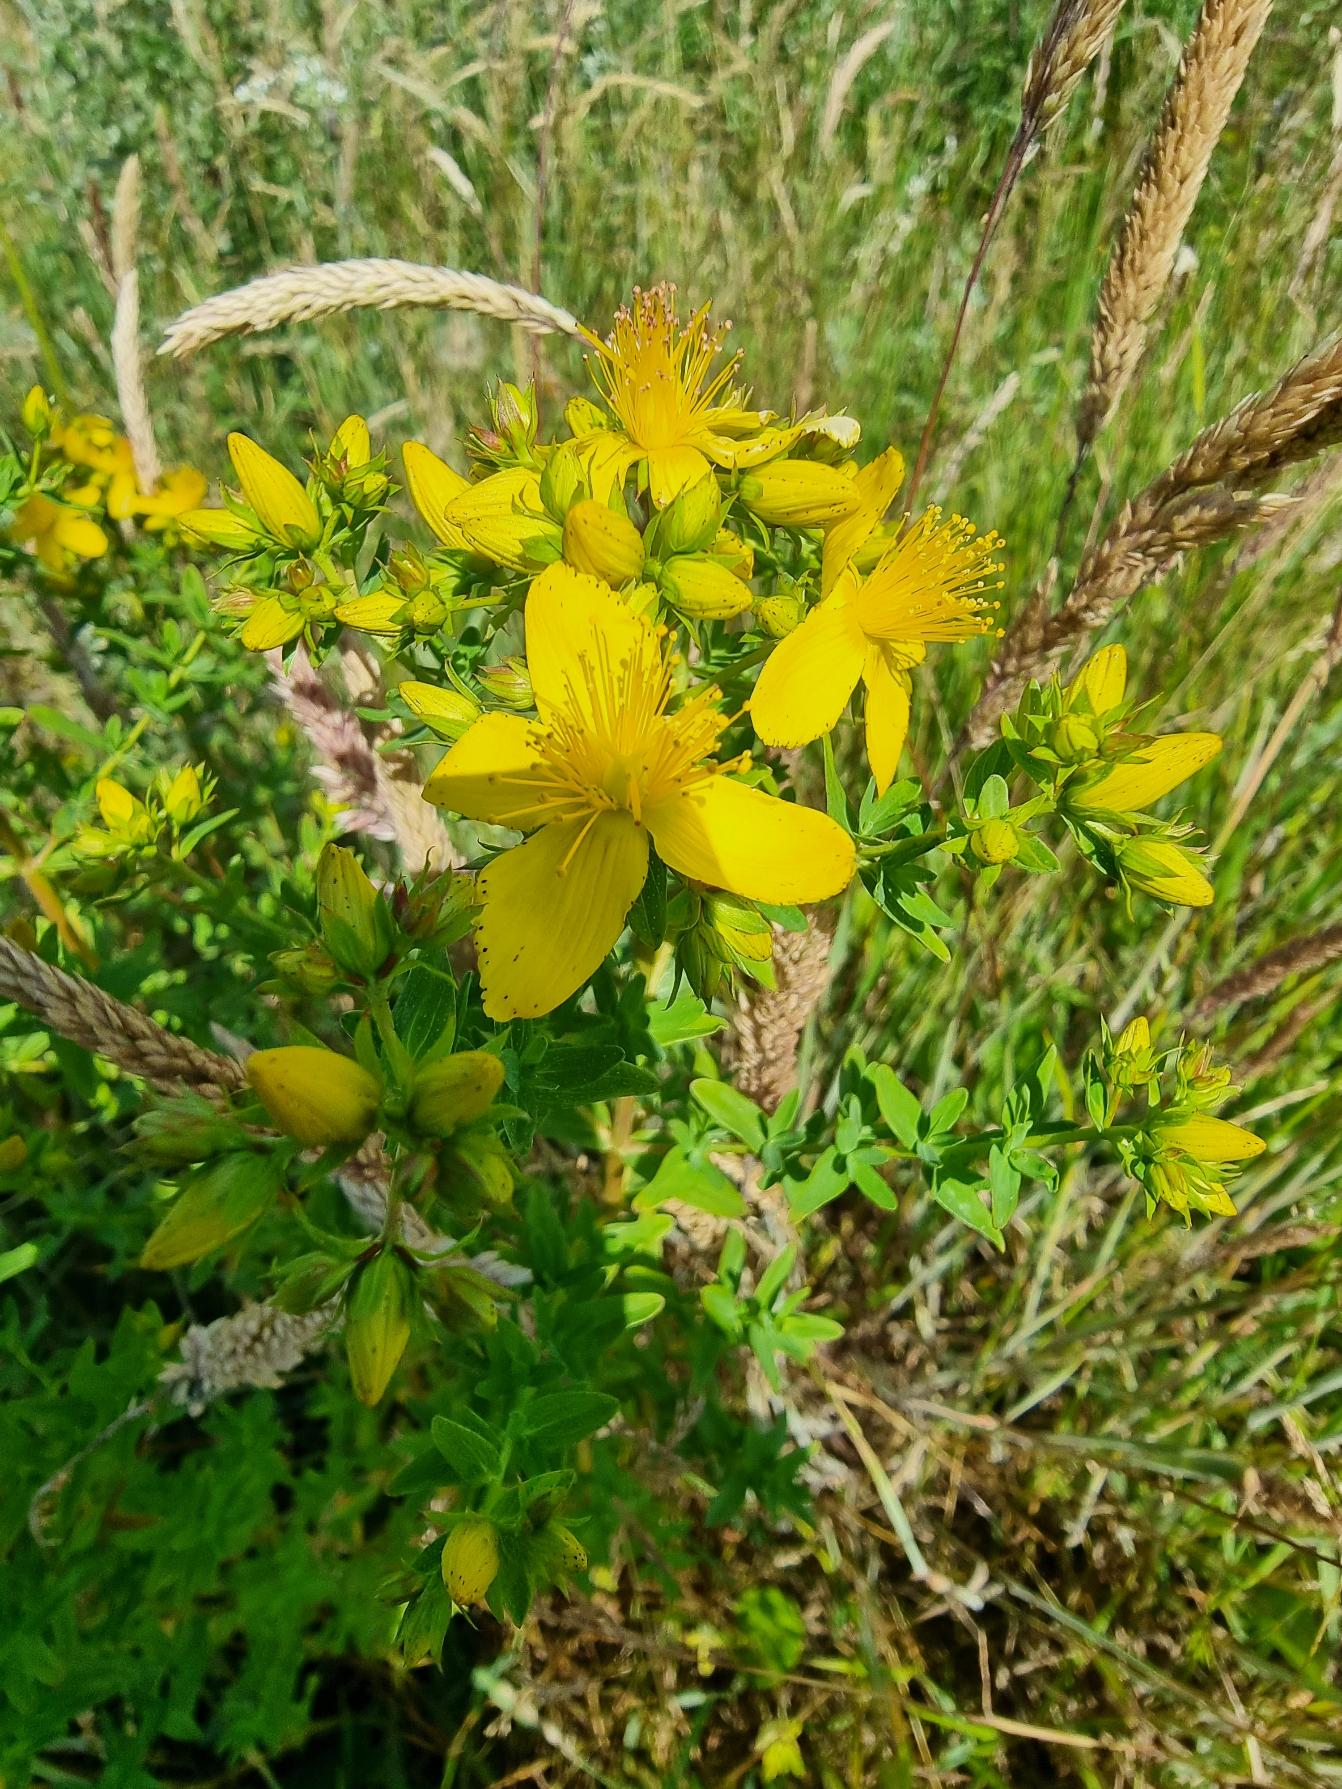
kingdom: Plantae
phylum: Tracheophyta
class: Magnoliopsida
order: Malpighiales
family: Hypericaceae
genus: Hypericum
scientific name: Hypericum perforatum
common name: Prikbladet perikon
